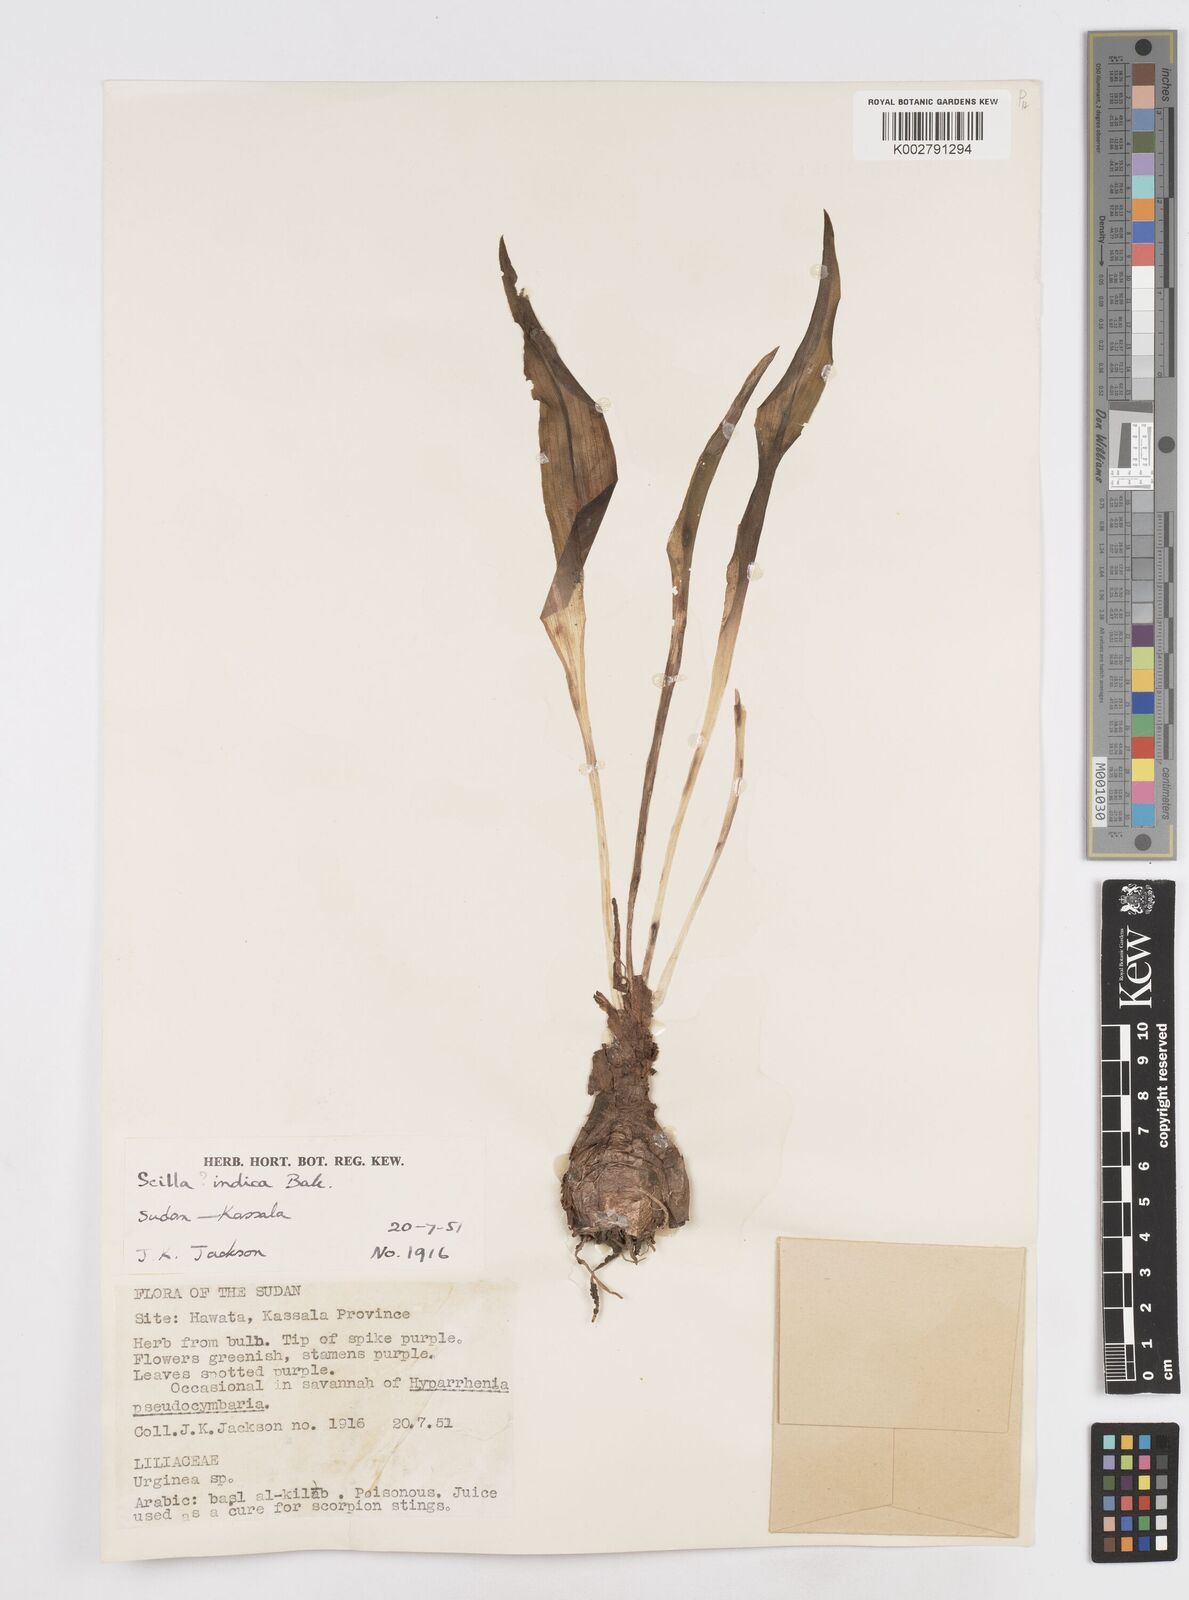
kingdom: Plantae
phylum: Tracheophyta
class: Liliopsida
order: Asparagales
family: Asparagaceae
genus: Ledebouria
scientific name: Ledebouria revoluta
